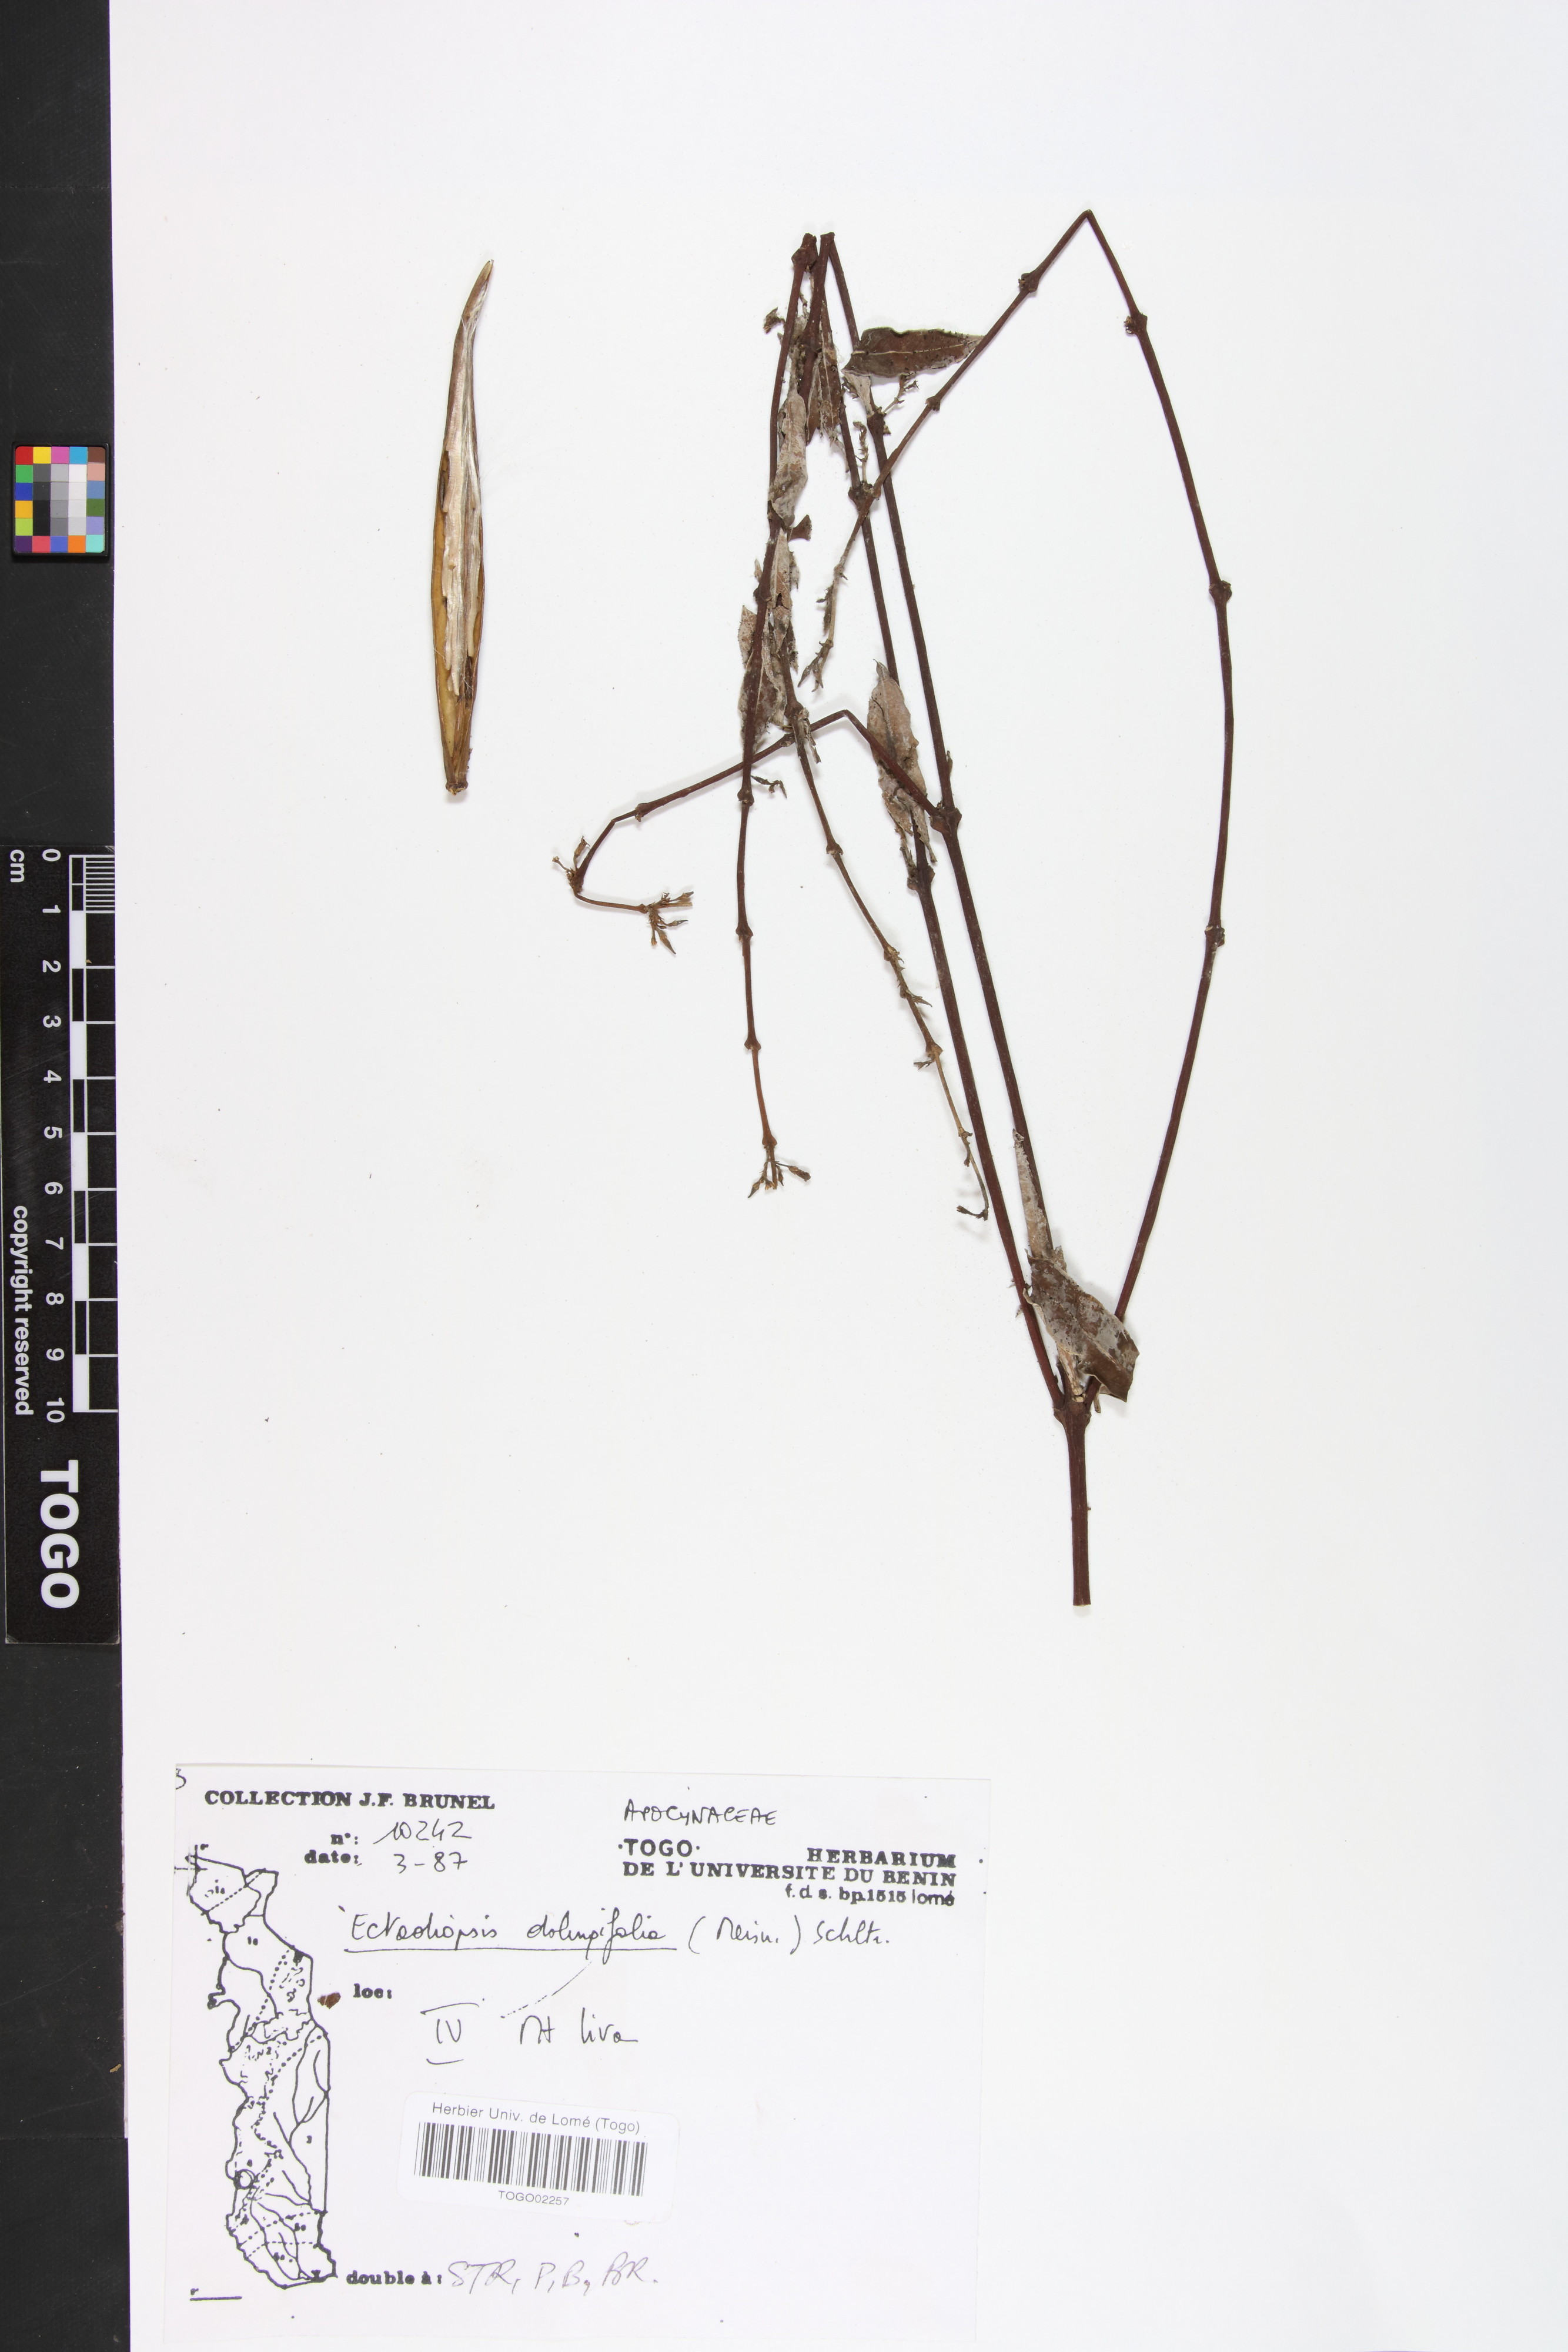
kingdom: Plantae
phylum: Tracheophyta
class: Magnoliopsida
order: Gentianales
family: Apocynaceae
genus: Cryptolepis
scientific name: Cryptolepis oblongifolia
